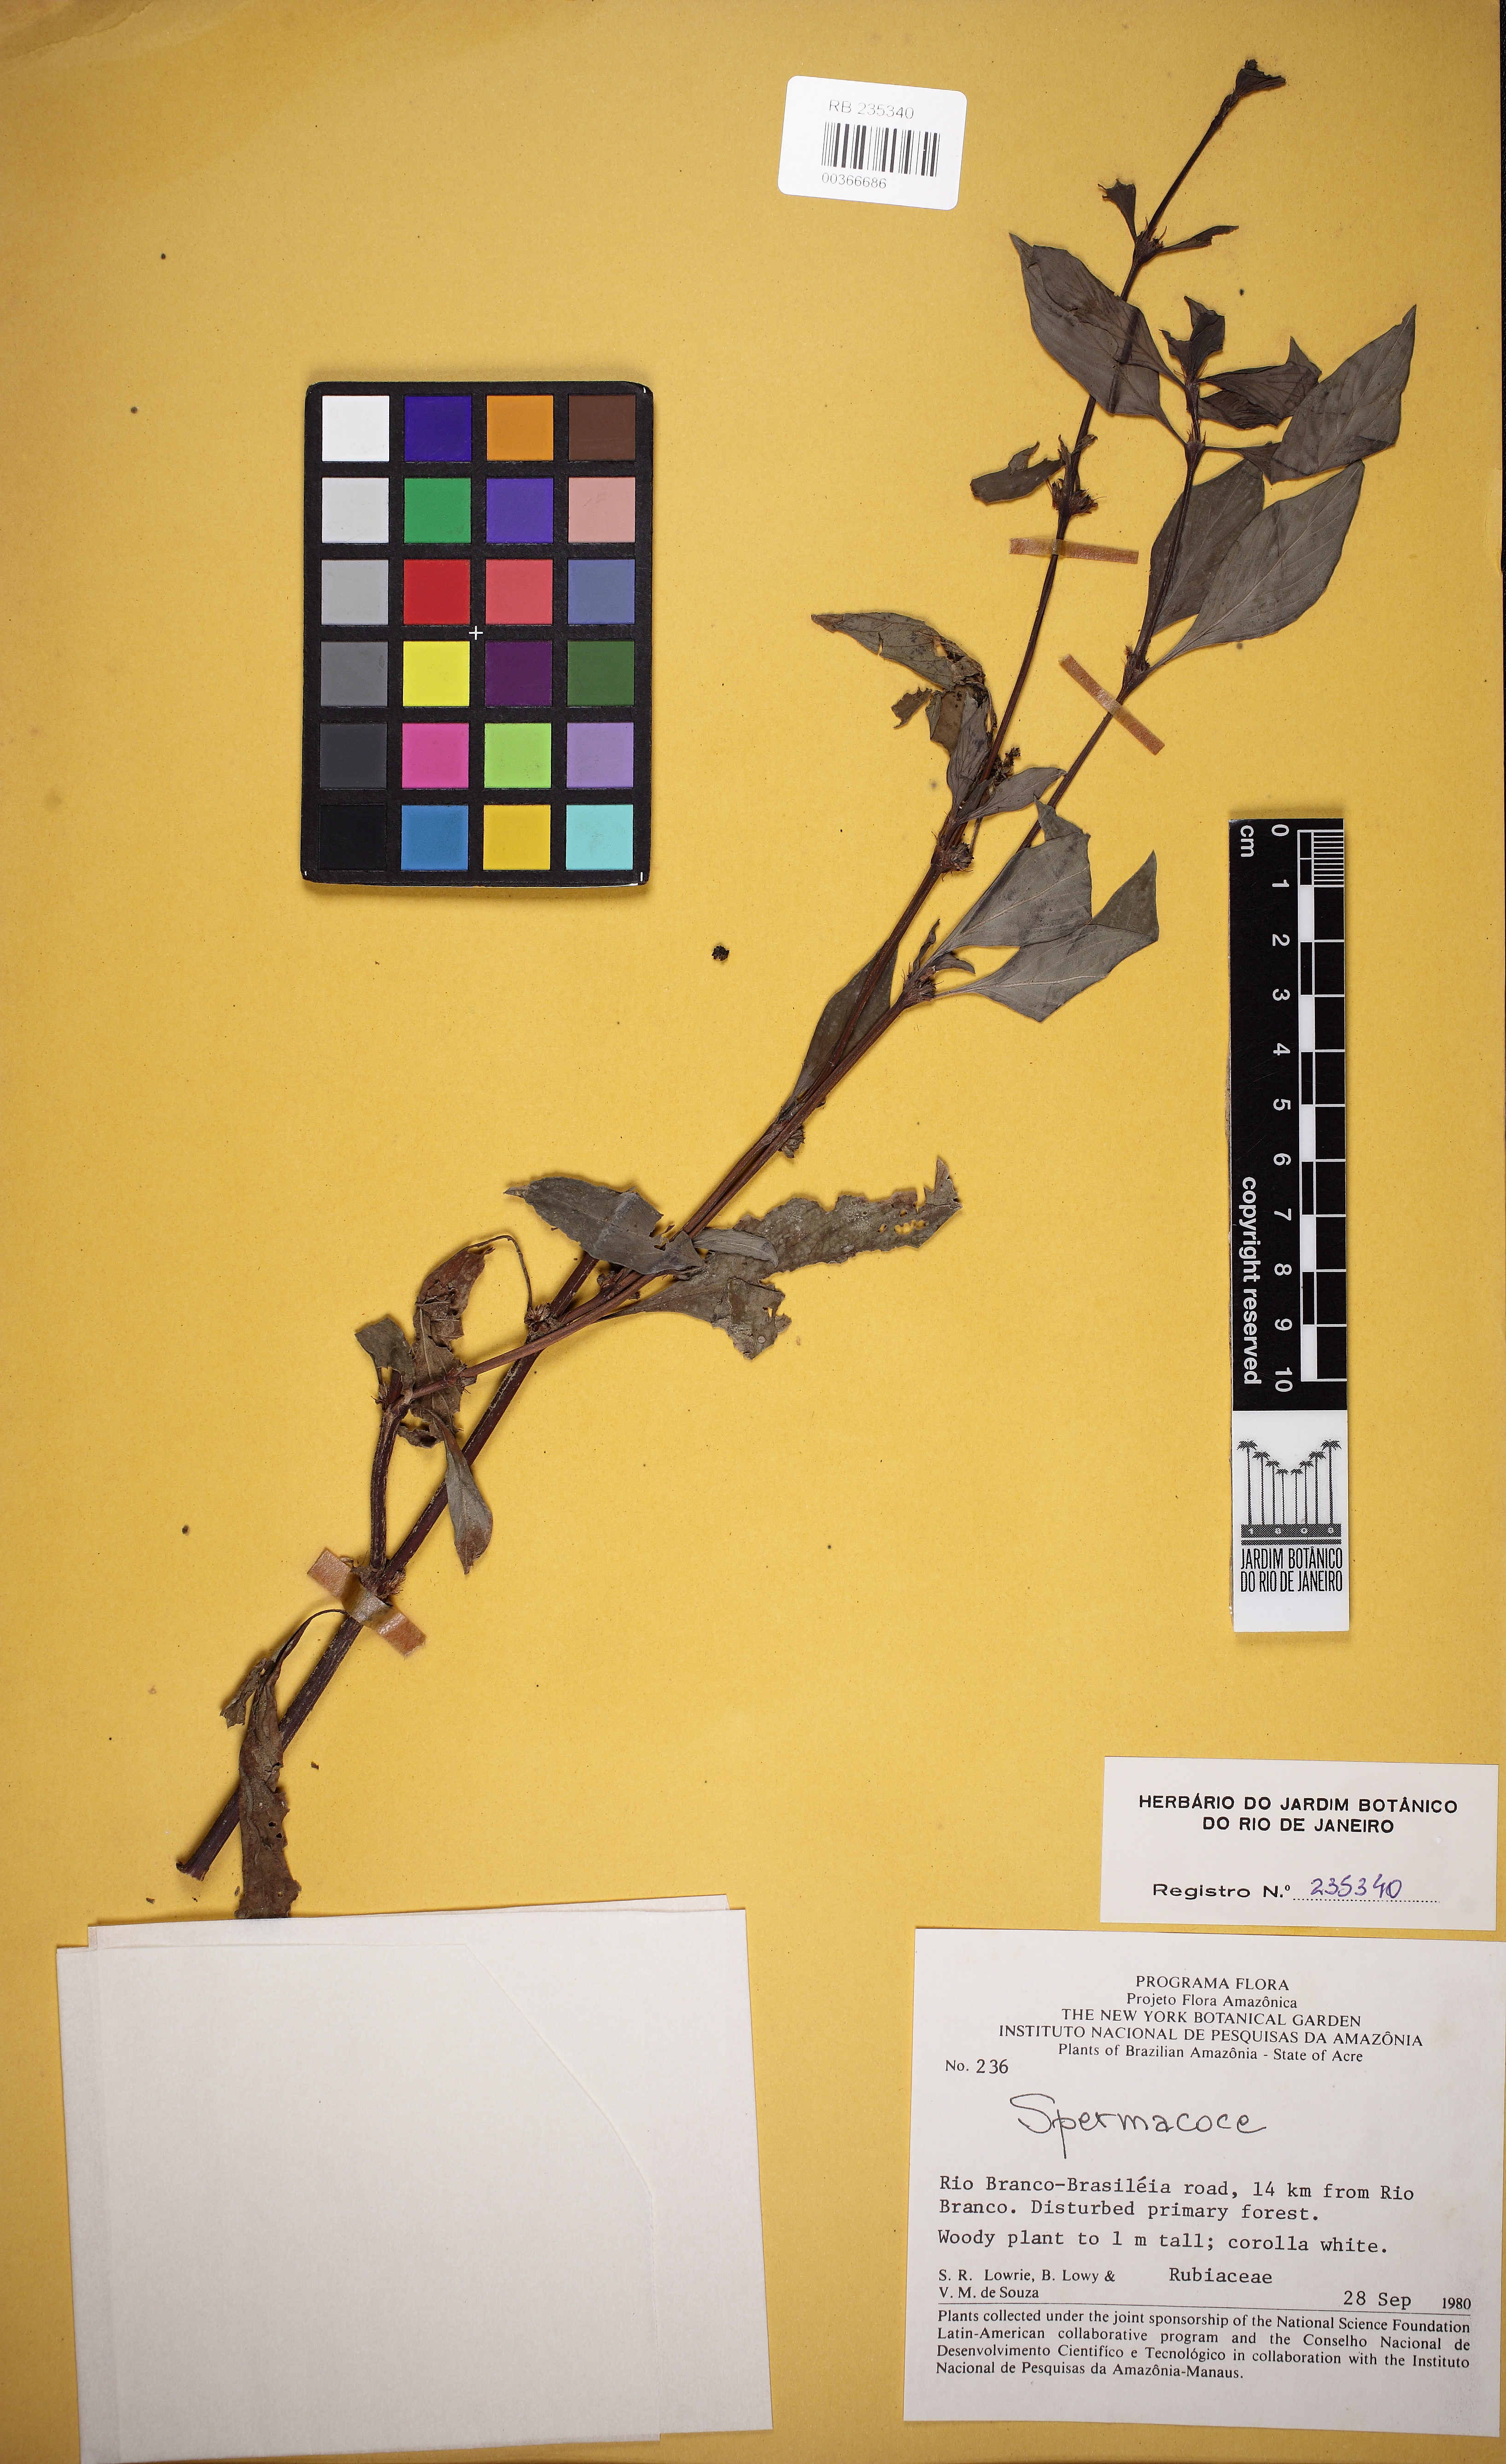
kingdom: Plantae
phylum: Tracheophyta
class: Magnoliopsida
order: Gentianales
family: Rubiaceae
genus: Spermacoce
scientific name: Spermacoce ocymifolia
